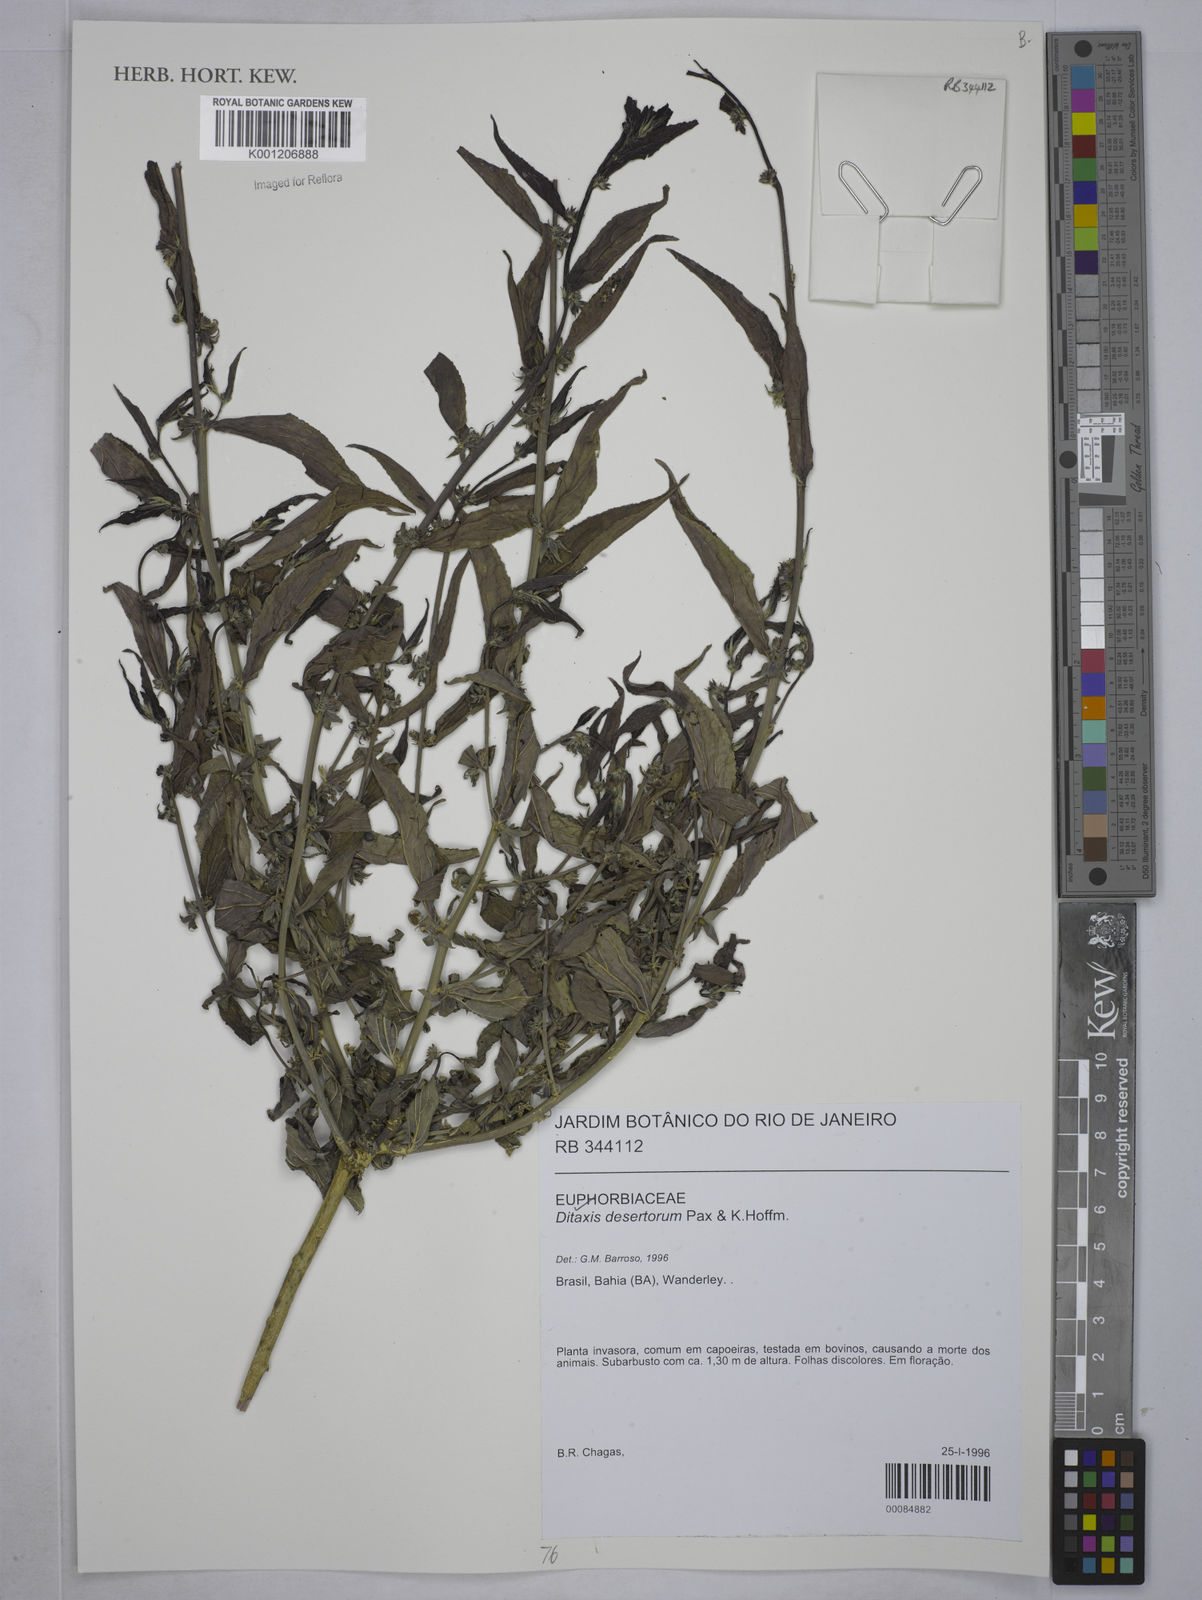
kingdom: Plantae
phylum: Tracheophyta
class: Magnoliopsida
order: Malpighiales
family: Euphorbiaceae
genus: Ditaxis
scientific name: Ditaxis
